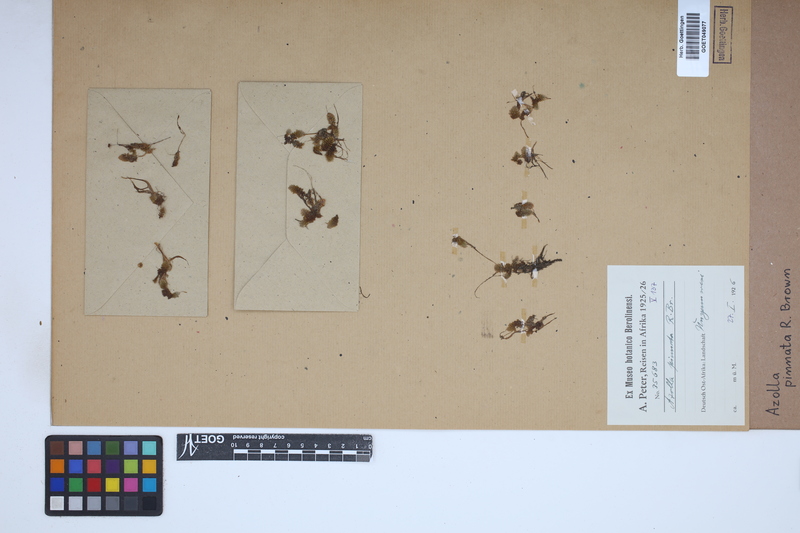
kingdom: Plantae
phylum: Tracheophyta
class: Polypodiopsida
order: Salviniales
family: Salviniaceae
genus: Azolla
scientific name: Azolla pinnata
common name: Ferny azolla
